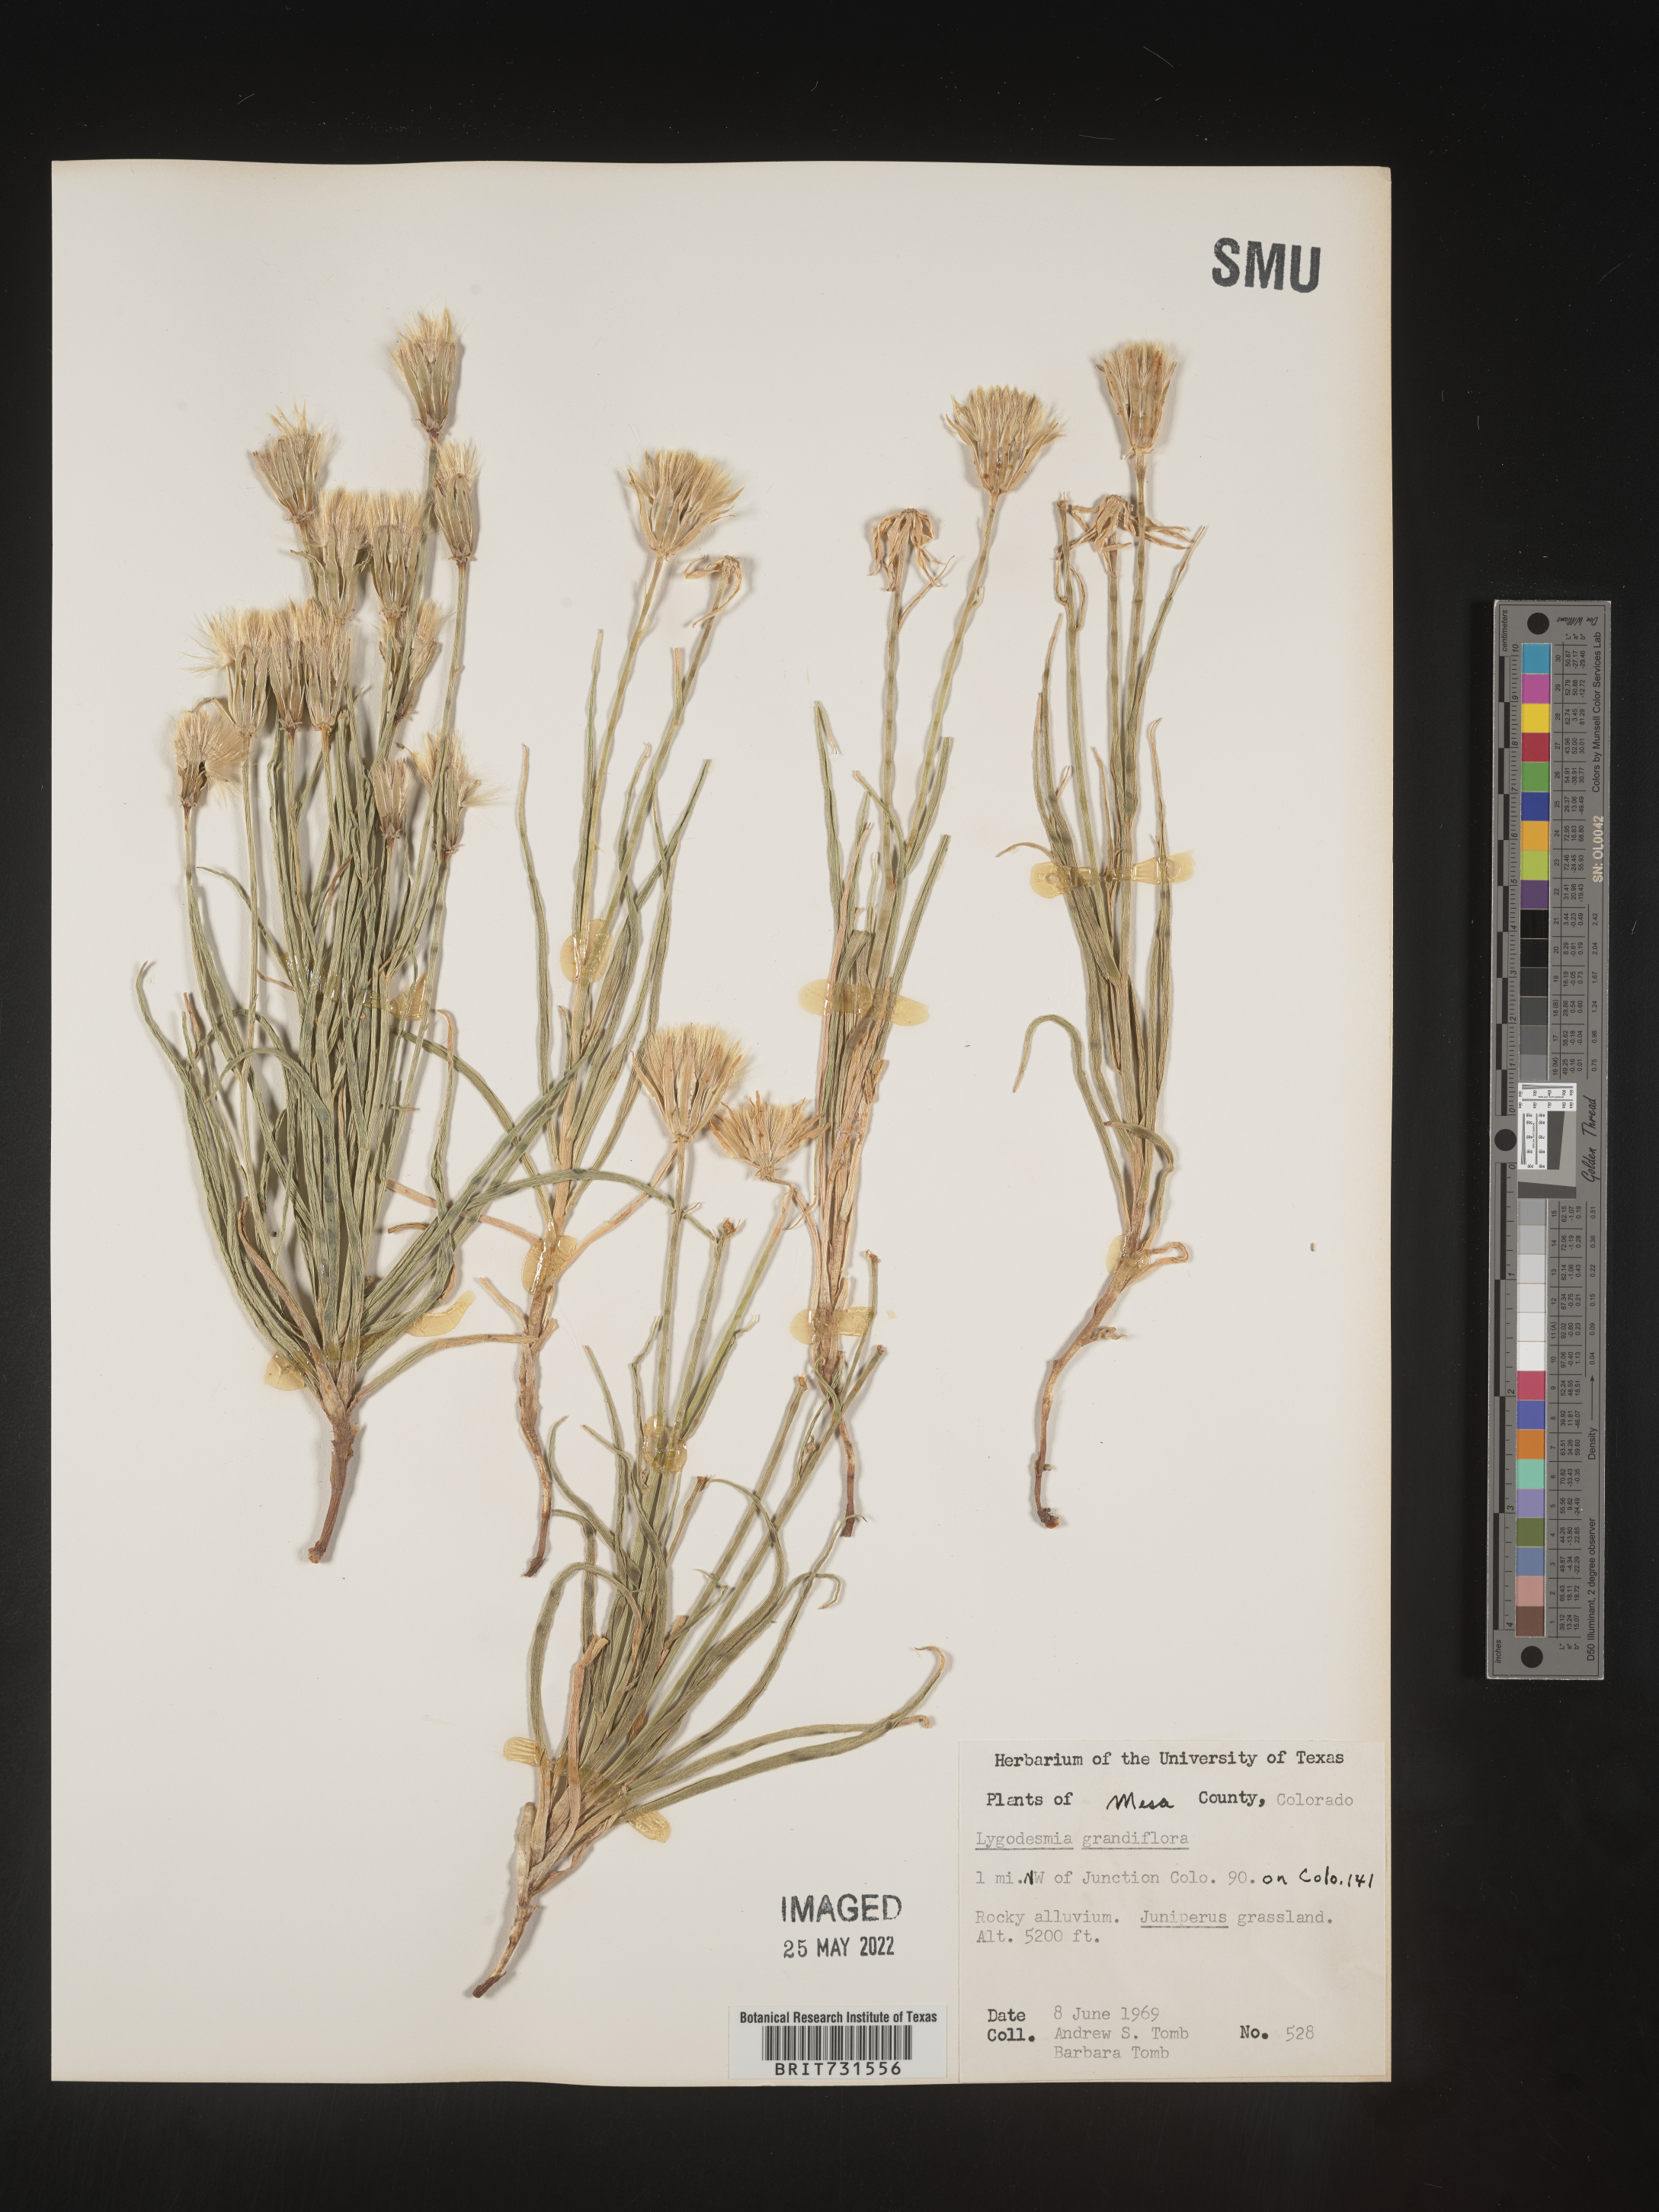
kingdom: Plantae
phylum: Tracheophyta
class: Magnoliopsida
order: Asterales
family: Asteraceae
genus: Lygodesmia
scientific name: Lygodesmia grandiflora
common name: Showy rush-pink
